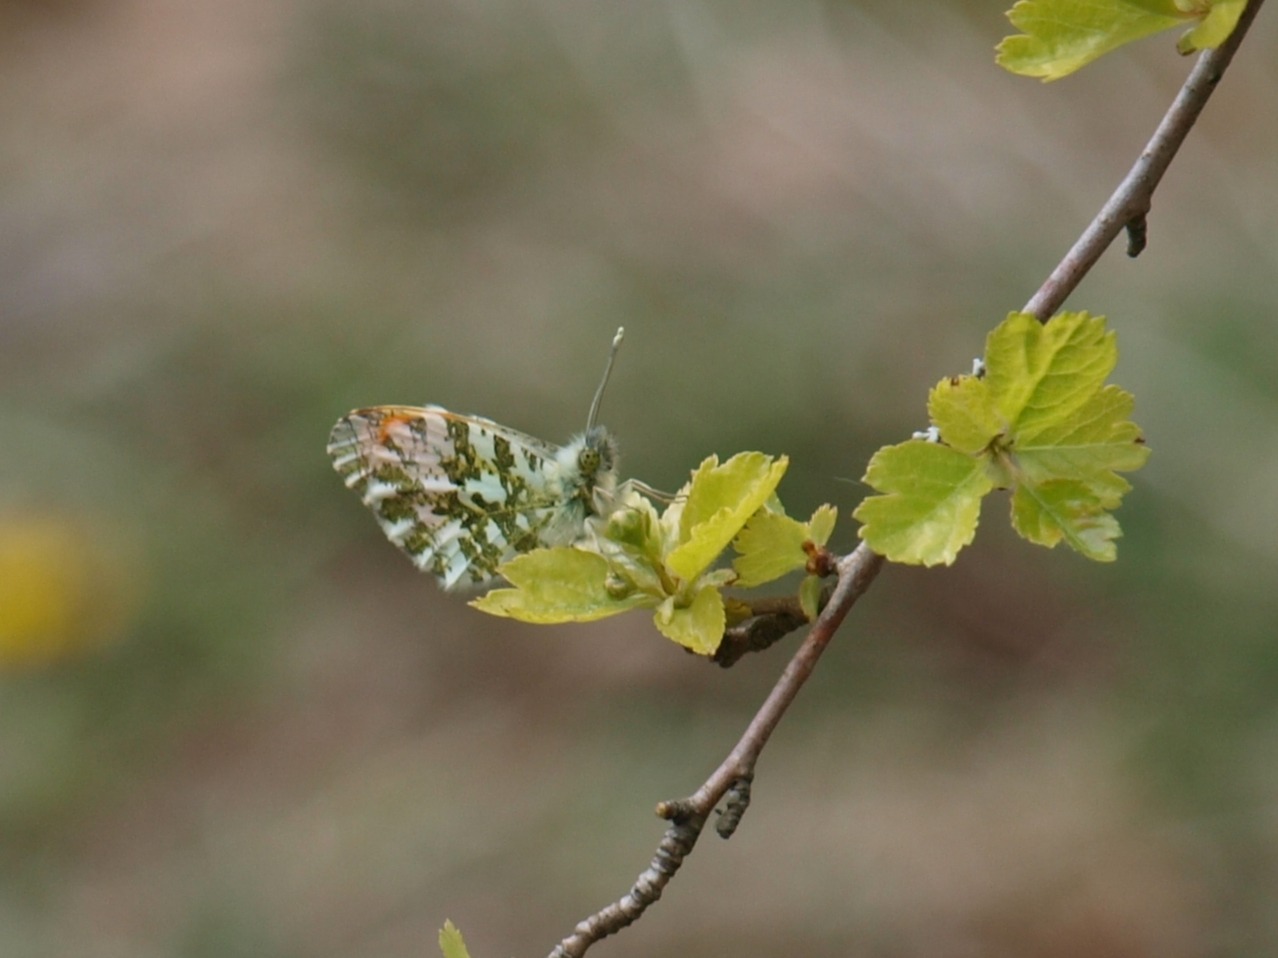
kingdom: Animalia
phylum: Arthropoda
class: Insecta
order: Lepidoptera
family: Pieridae
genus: Anthocharis
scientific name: Anthocharis cardamines
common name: Aurora
